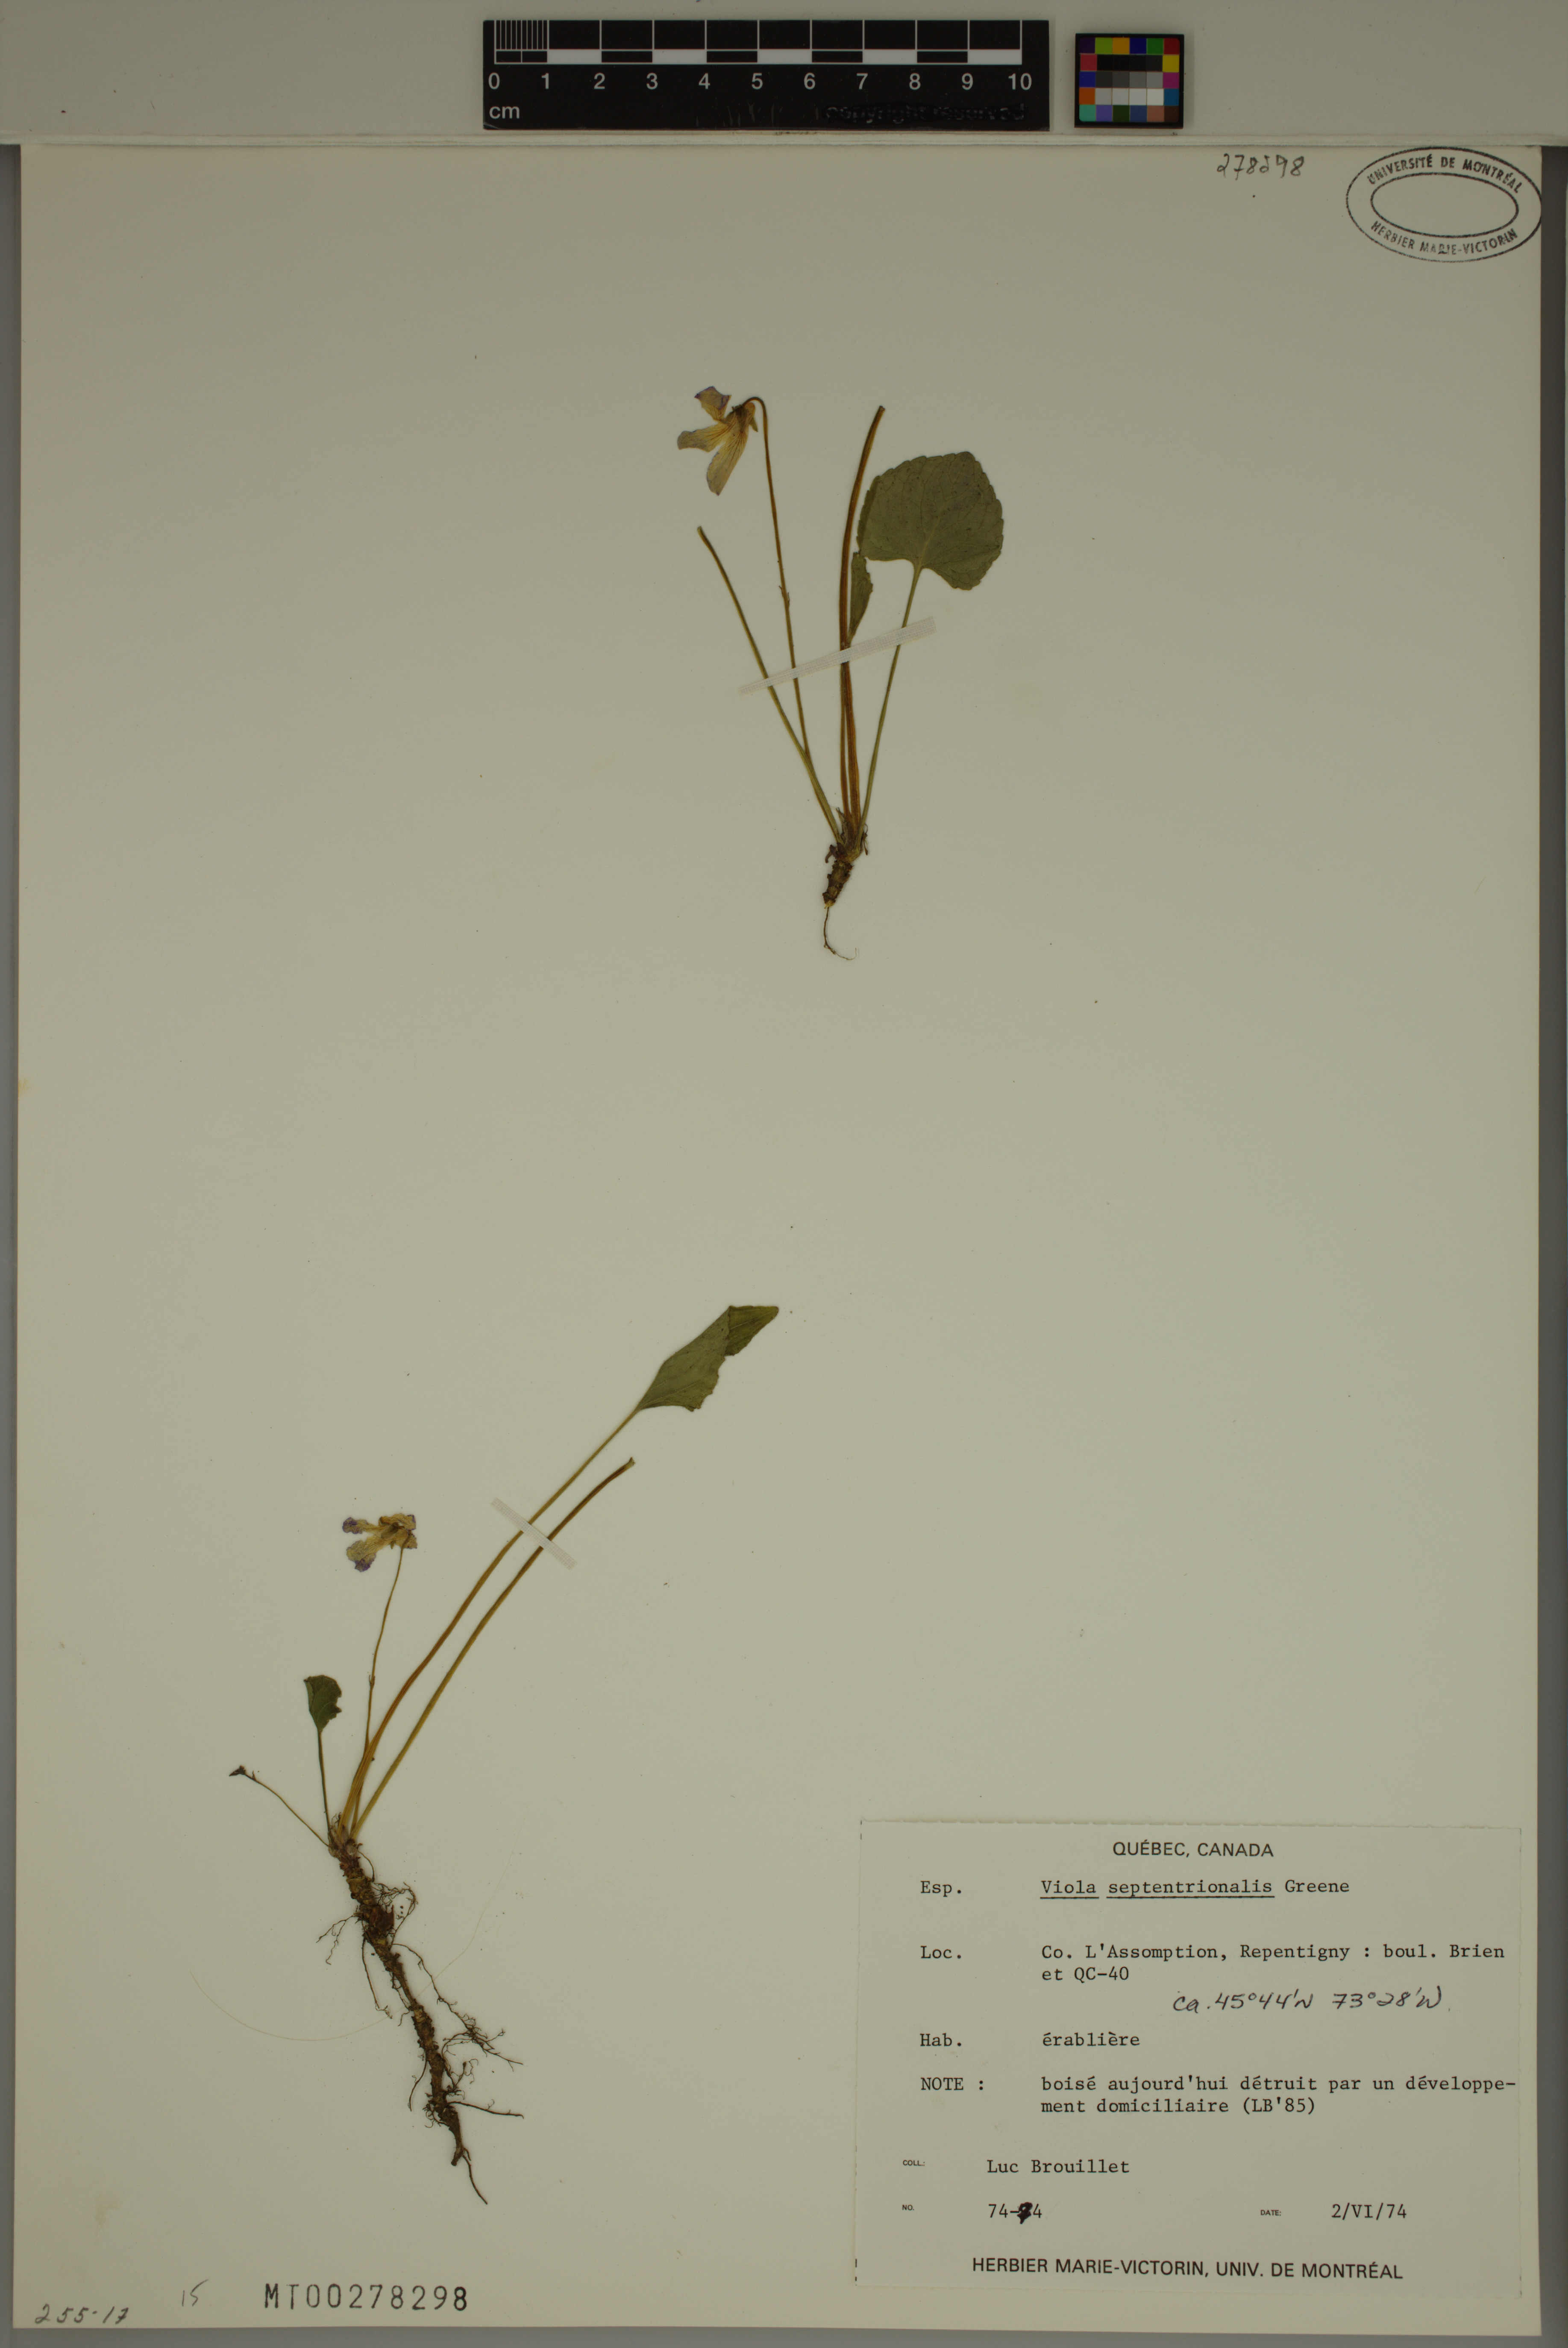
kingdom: Plantae
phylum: Tracheophyta
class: Magnoliopsida
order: Malpighiales
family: Violaceae
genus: Viola
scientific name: Viola septentrionalis
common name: Northern woodland violet
